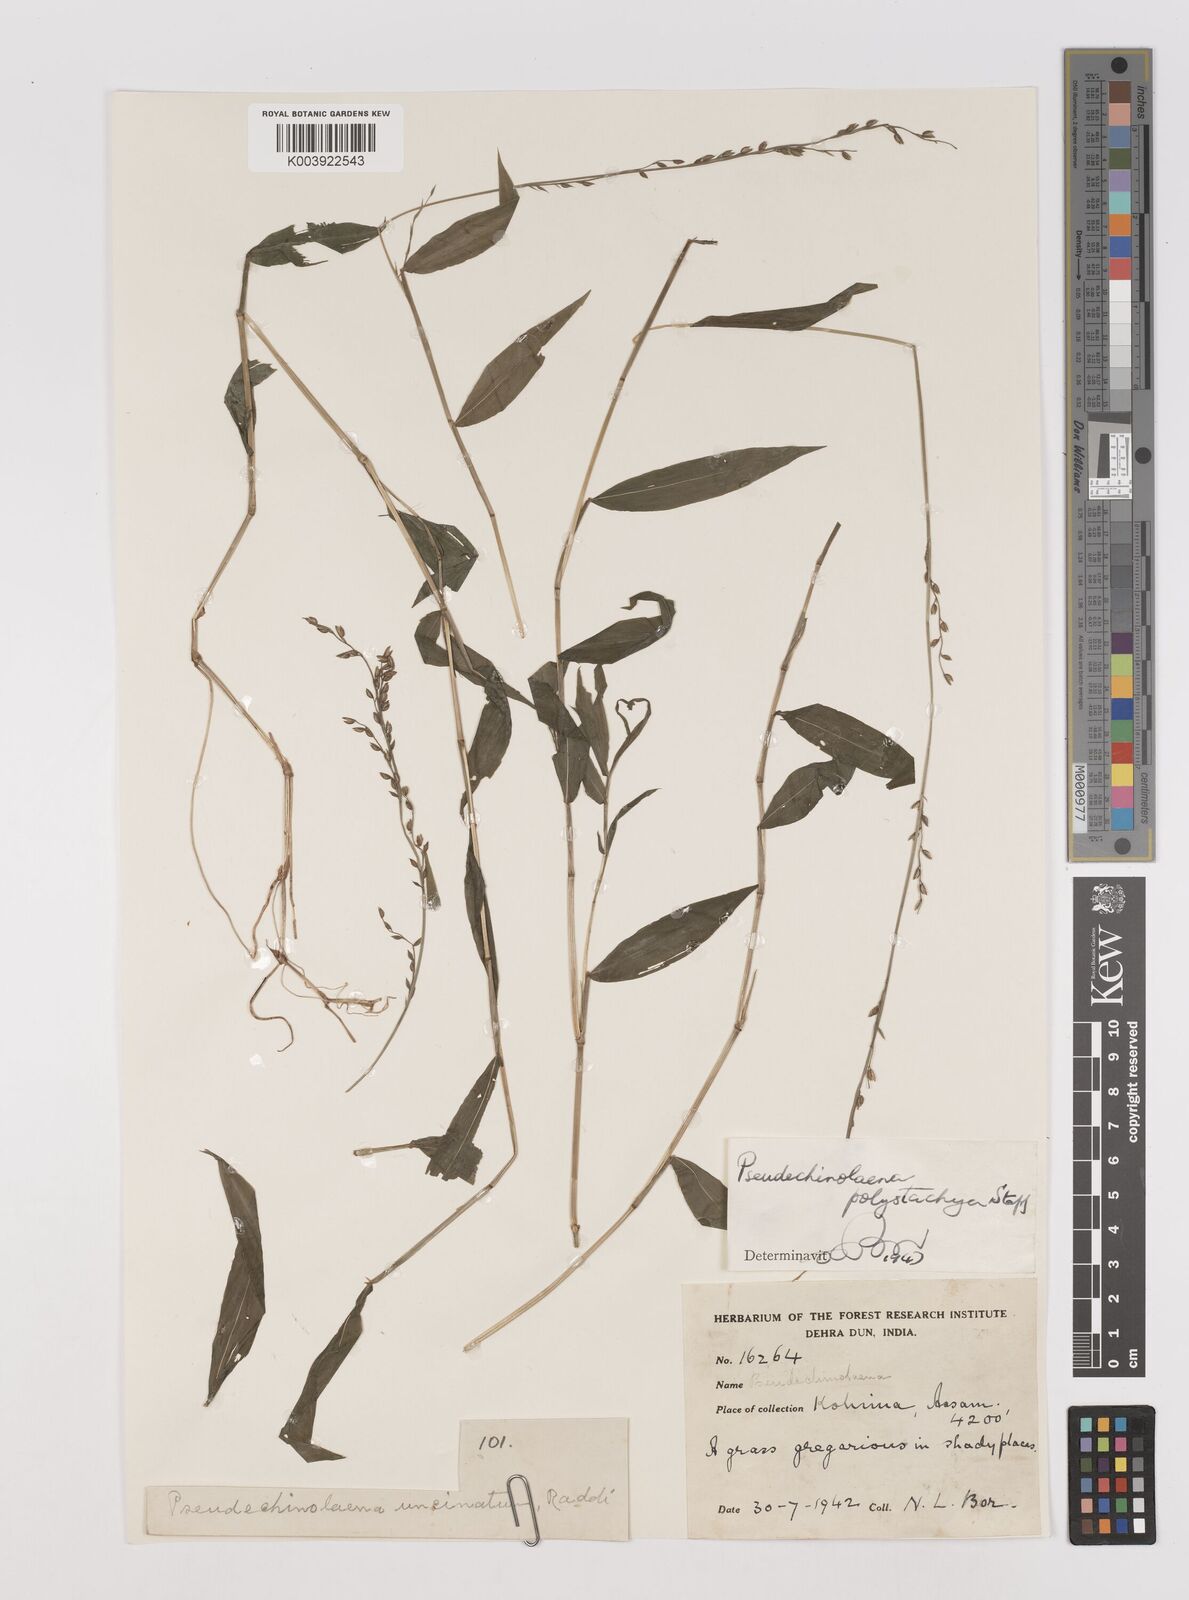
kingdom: Plantae
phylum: Tracheophyta
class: Liliopsida
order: Poales
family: Poaceae
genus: Pseudechinolaena
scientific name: Pseudechinolaena polystachya
